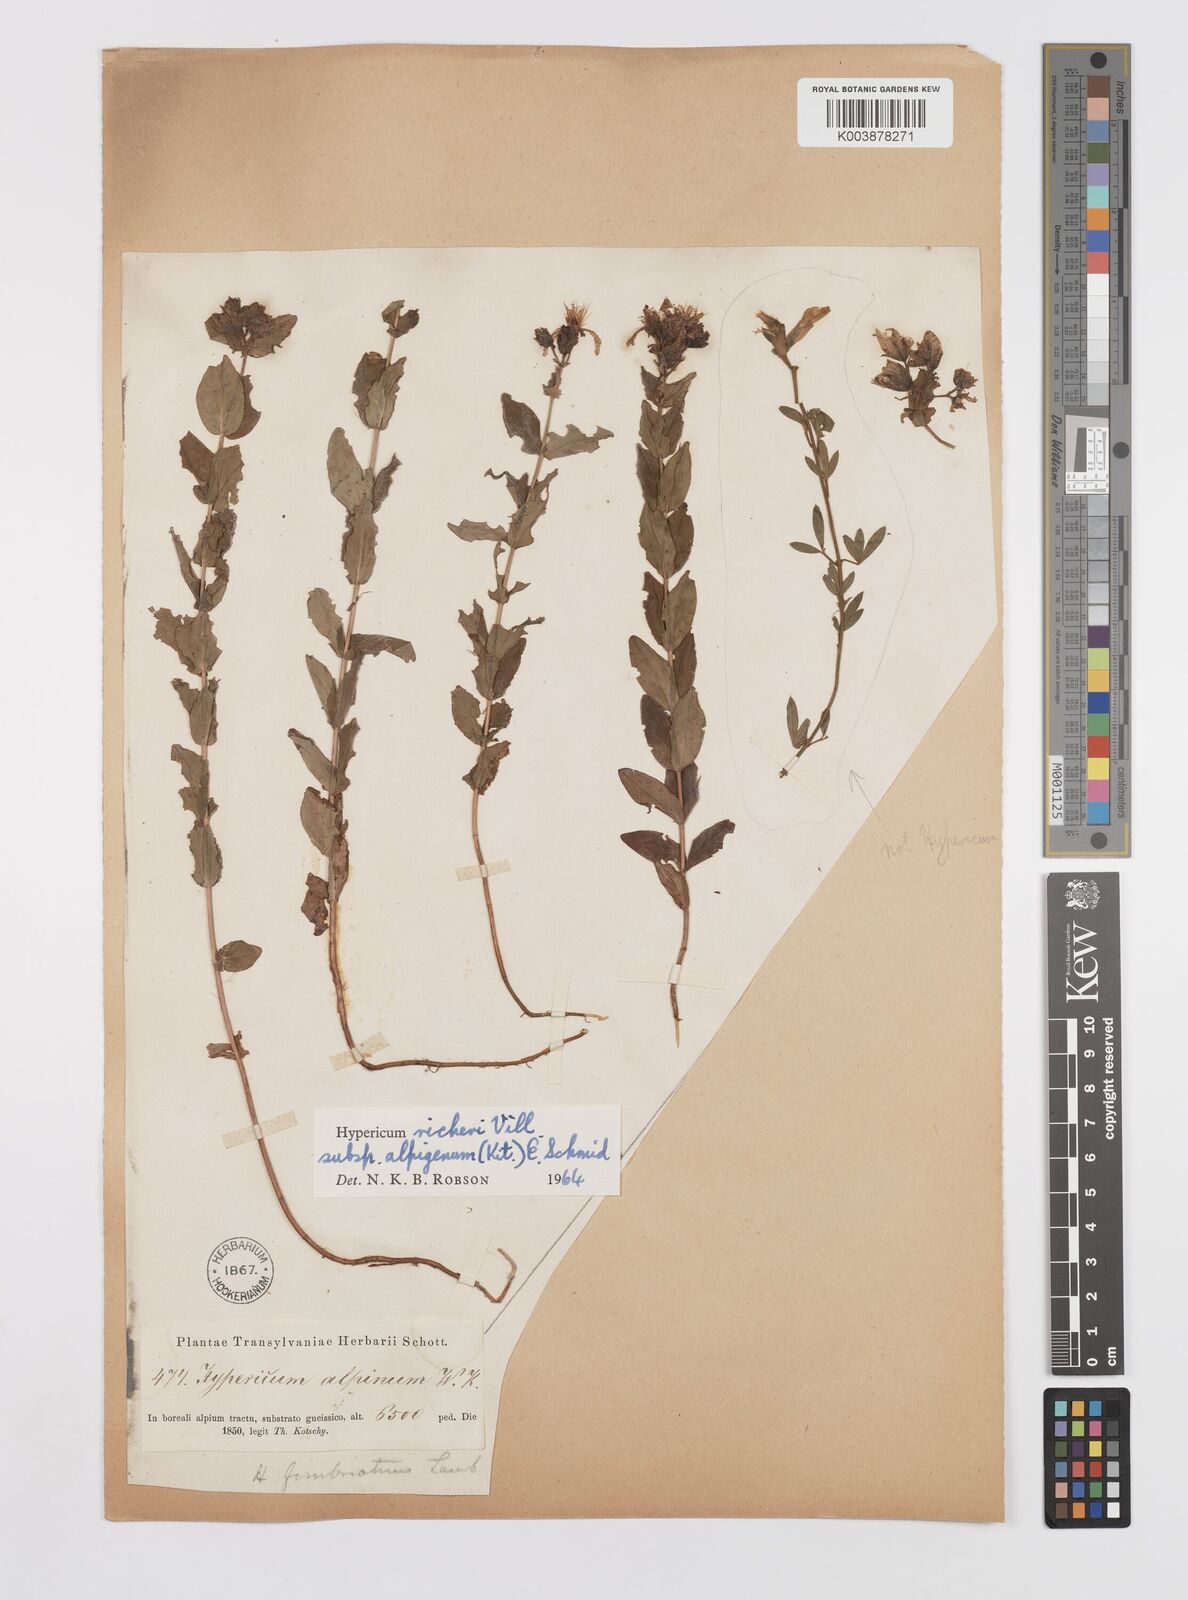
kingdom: Plantae
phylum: Tracheophyta
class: Magnoliopsida
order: Malpighiales
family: Hypericaceae
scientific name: Hypericaceae
